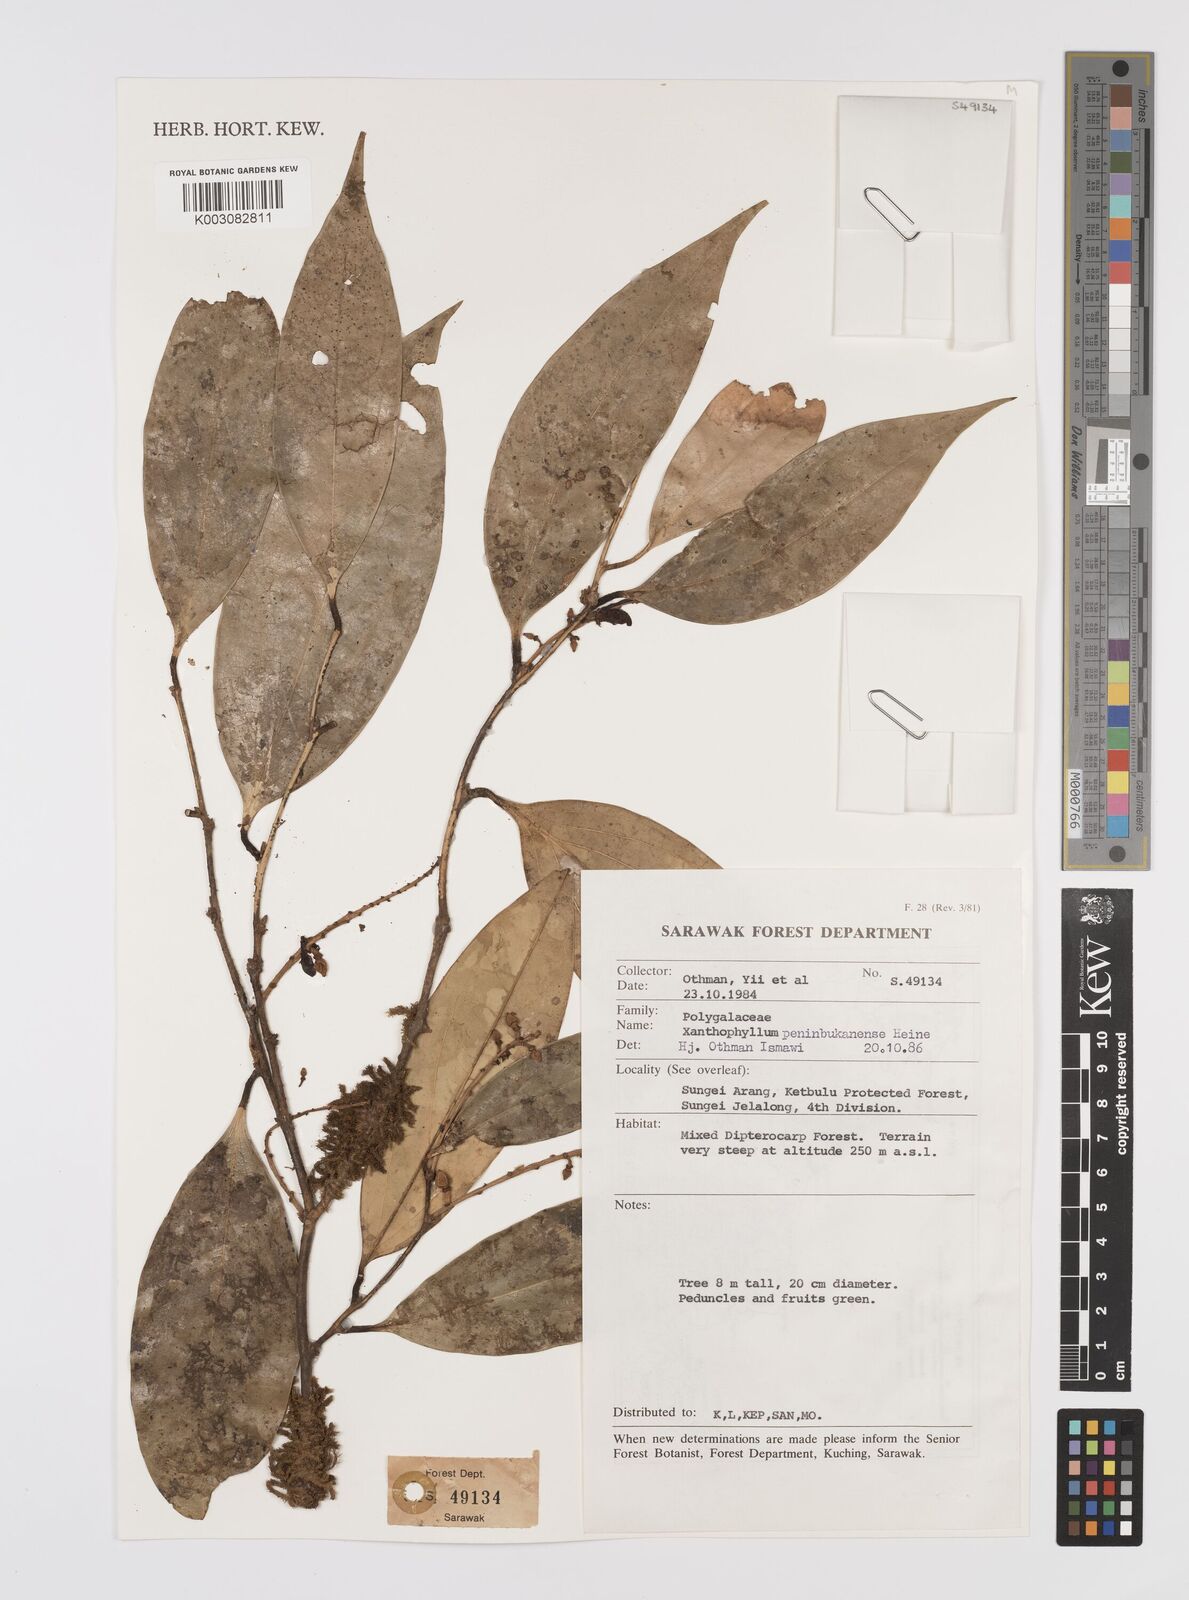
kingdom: Plantae
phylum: Tracheophyta
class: Magnoliopsida
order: Fabales
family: Polygalaceae
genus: Xanthophyllum
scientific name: Xanthophyllum penibukanense
